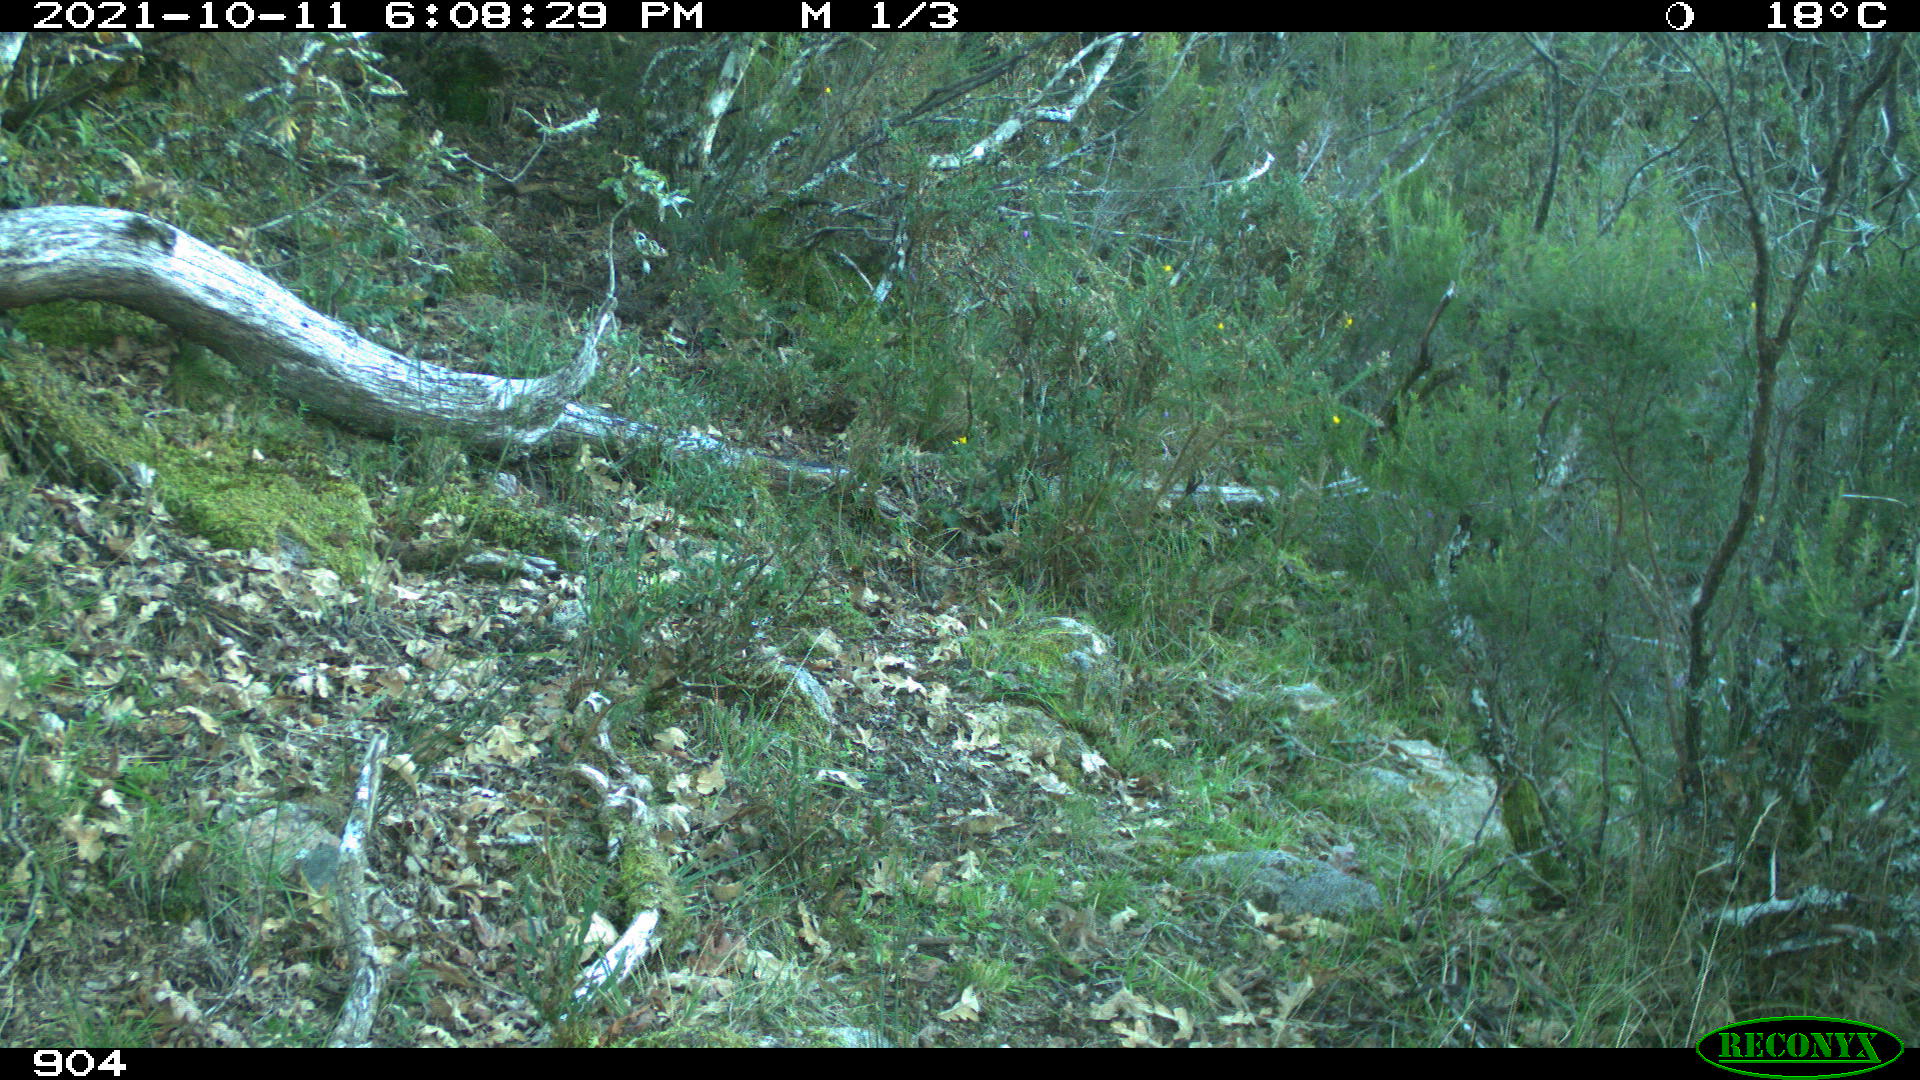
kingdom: Animalia
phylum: Chordata
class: Mammalia
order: Artiodactyla
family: Bovidae
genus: Bos
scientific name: Bos taurus
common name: Domesticated cattle
